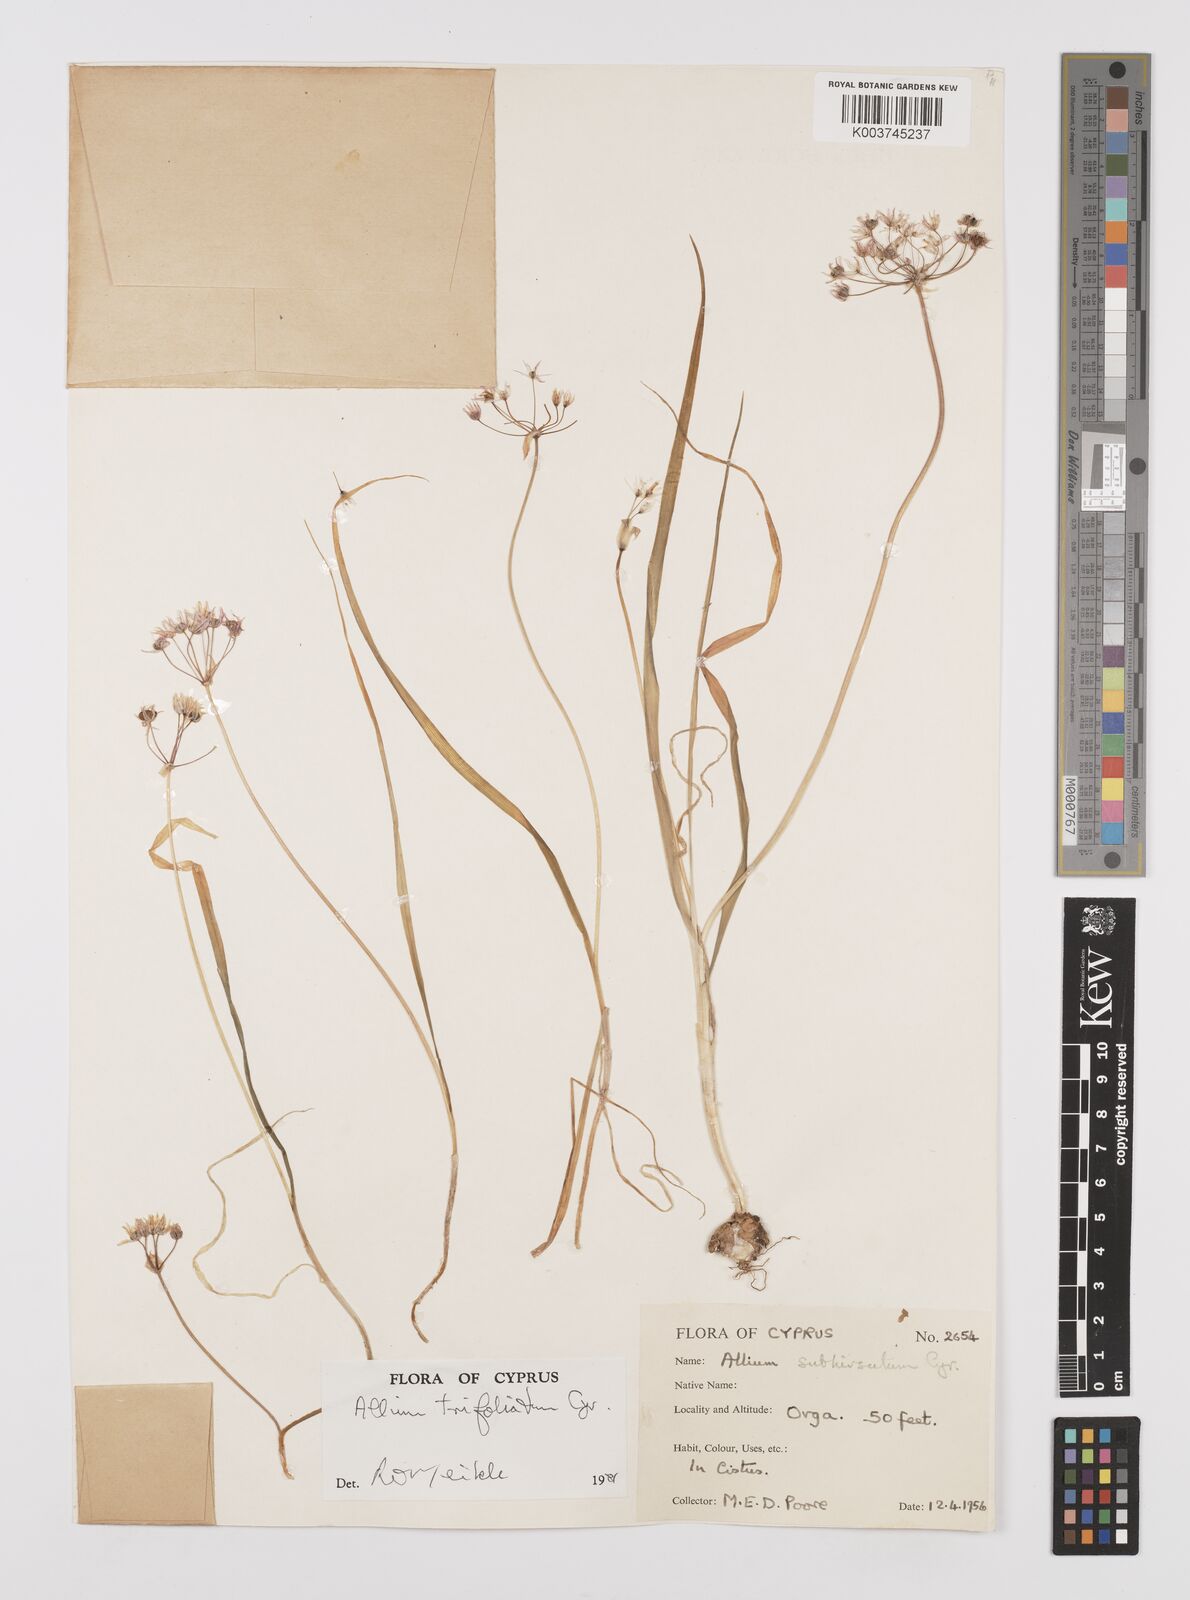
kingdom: Plantae
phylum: Tracheophyta
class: Liliopsida
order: Asparagales
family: Amaryllidaceae
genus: Allium
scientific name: Allium trifoliatum
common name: Pink garlic
